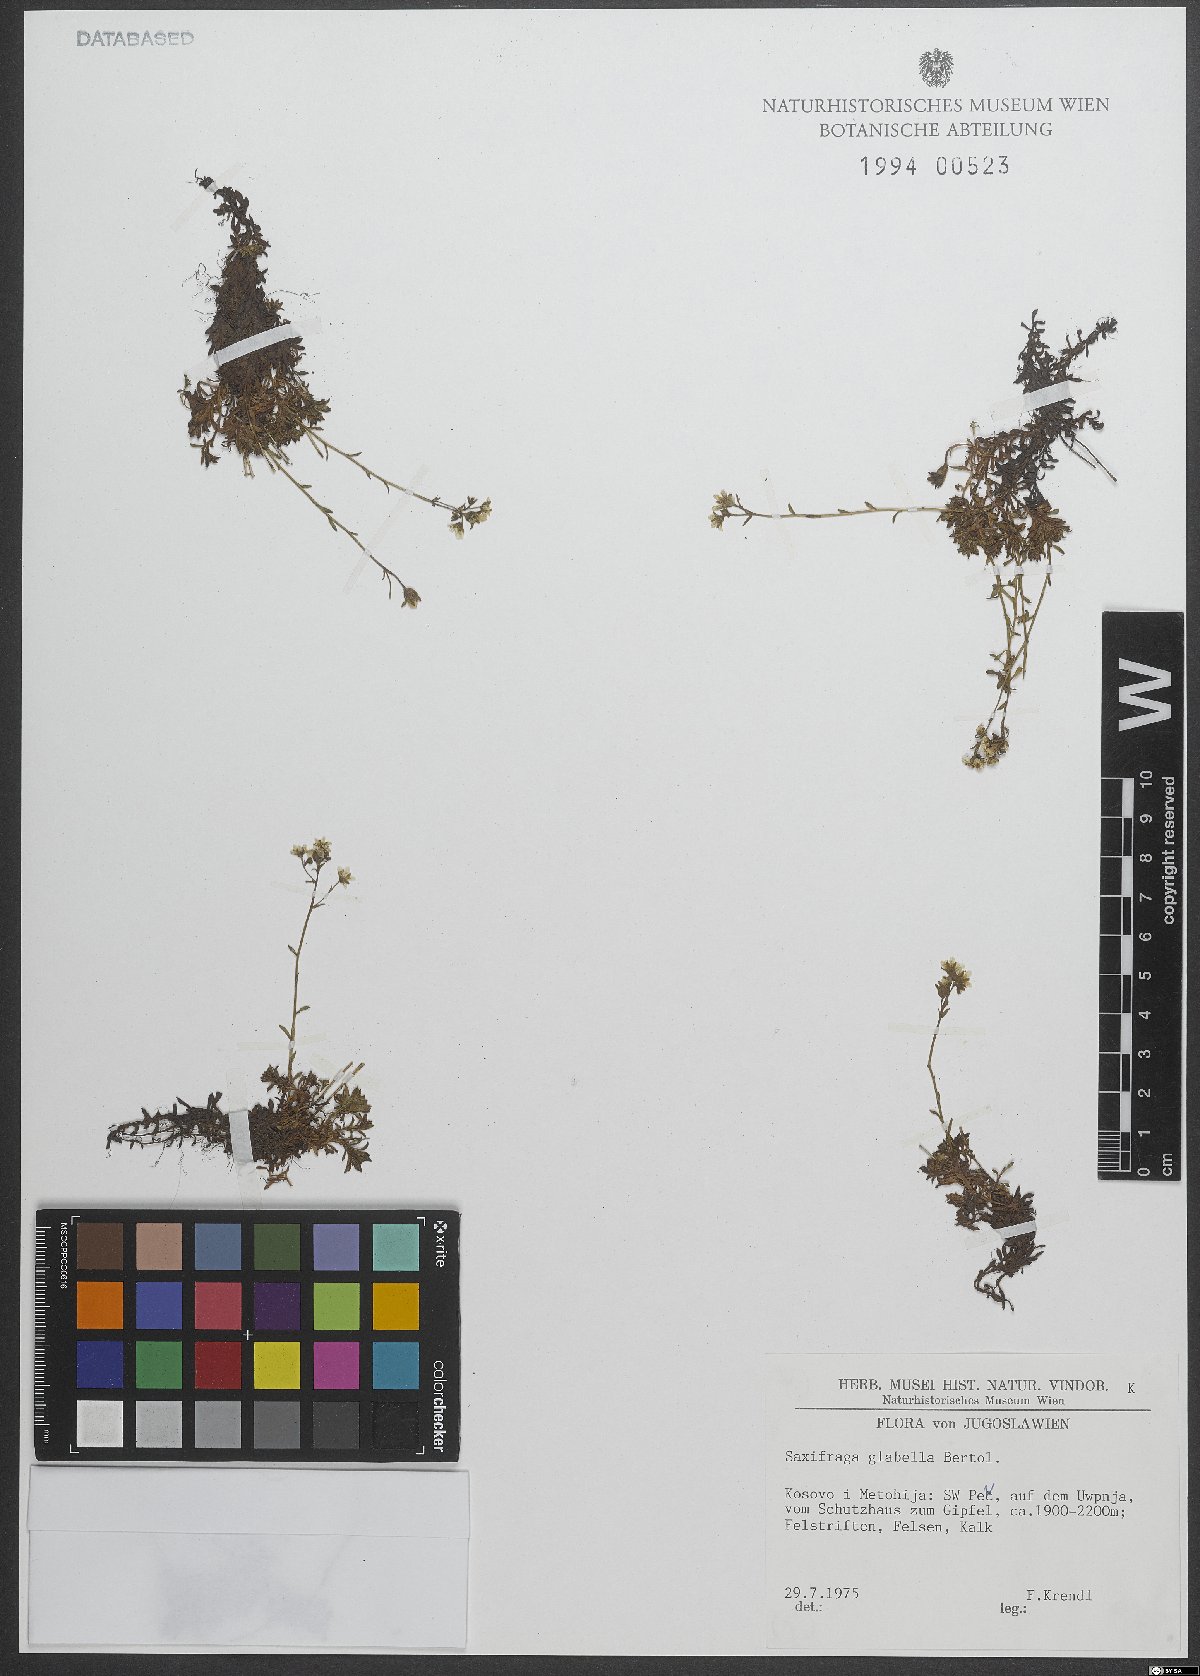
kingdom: Plantae
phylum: Tracheophyta
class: Magnoliopsida
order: Saxifragales
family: Saxifragaceae
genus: Saxifraga
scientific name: Saxifraga glabella
